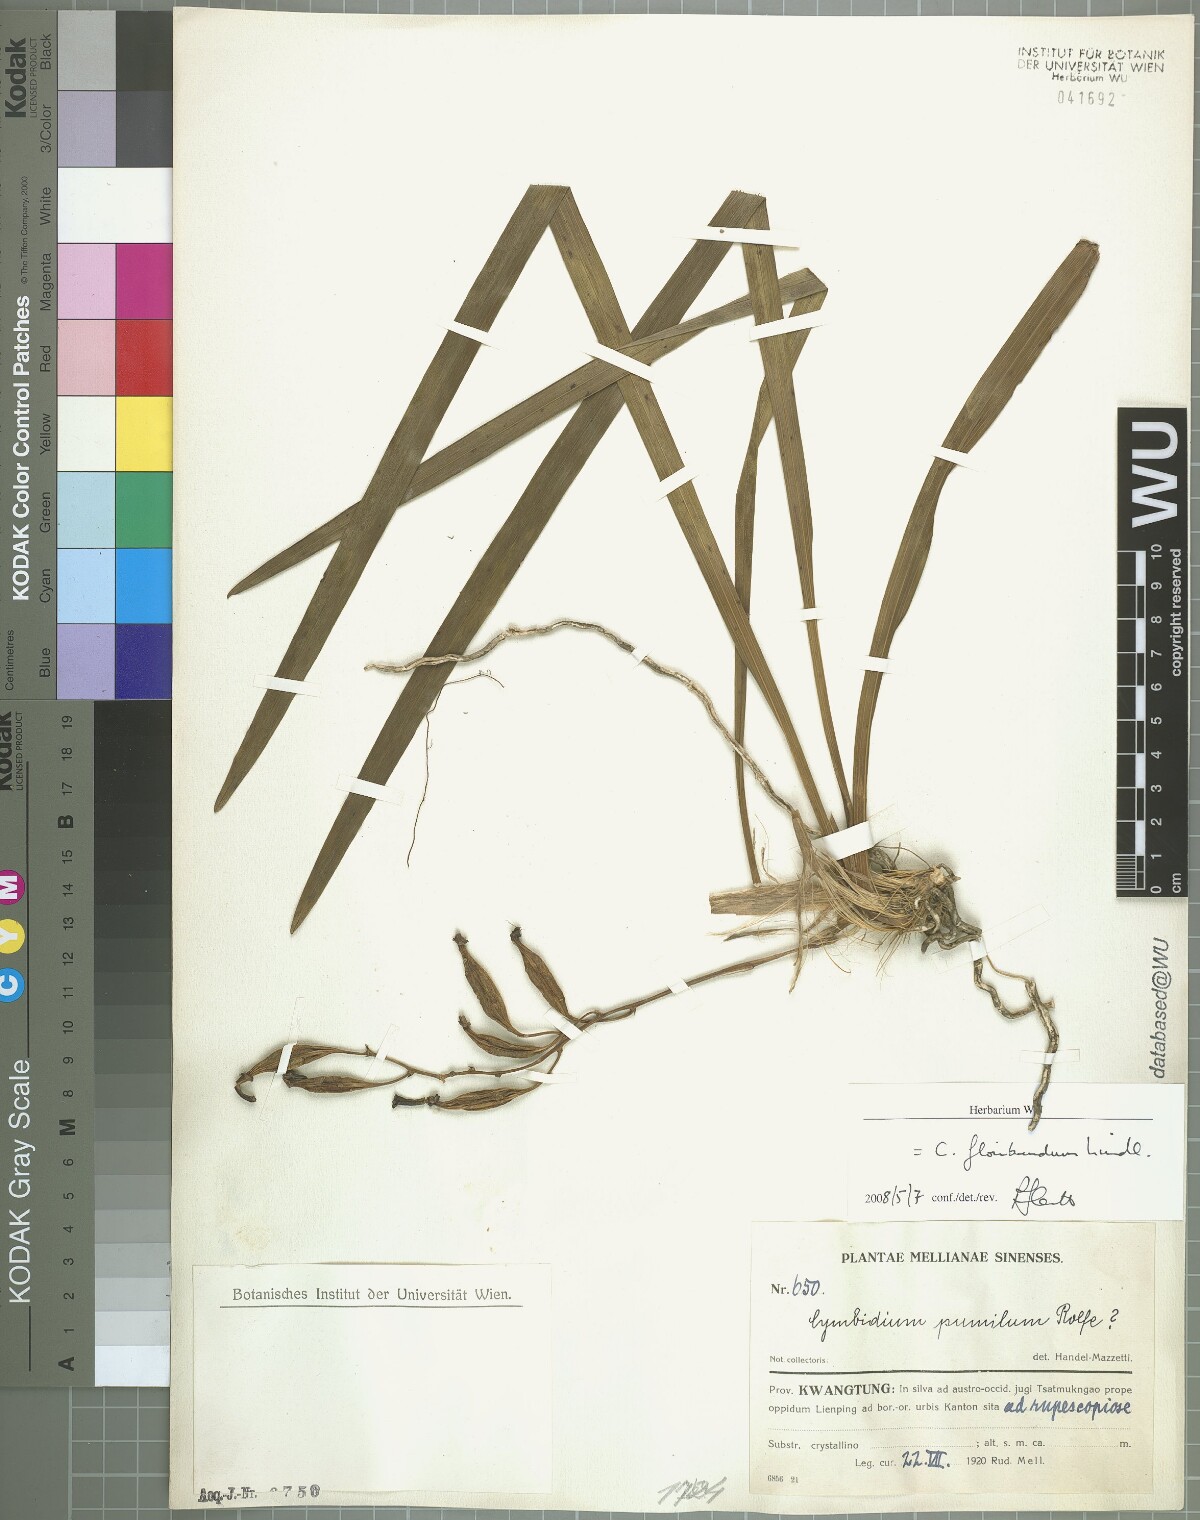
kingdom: Plantae
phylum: Tracheophyta
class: Liliopsida
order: Asparagales
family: Orchidaceae
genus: Cymbidium
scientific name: Cymbidium floribundum
